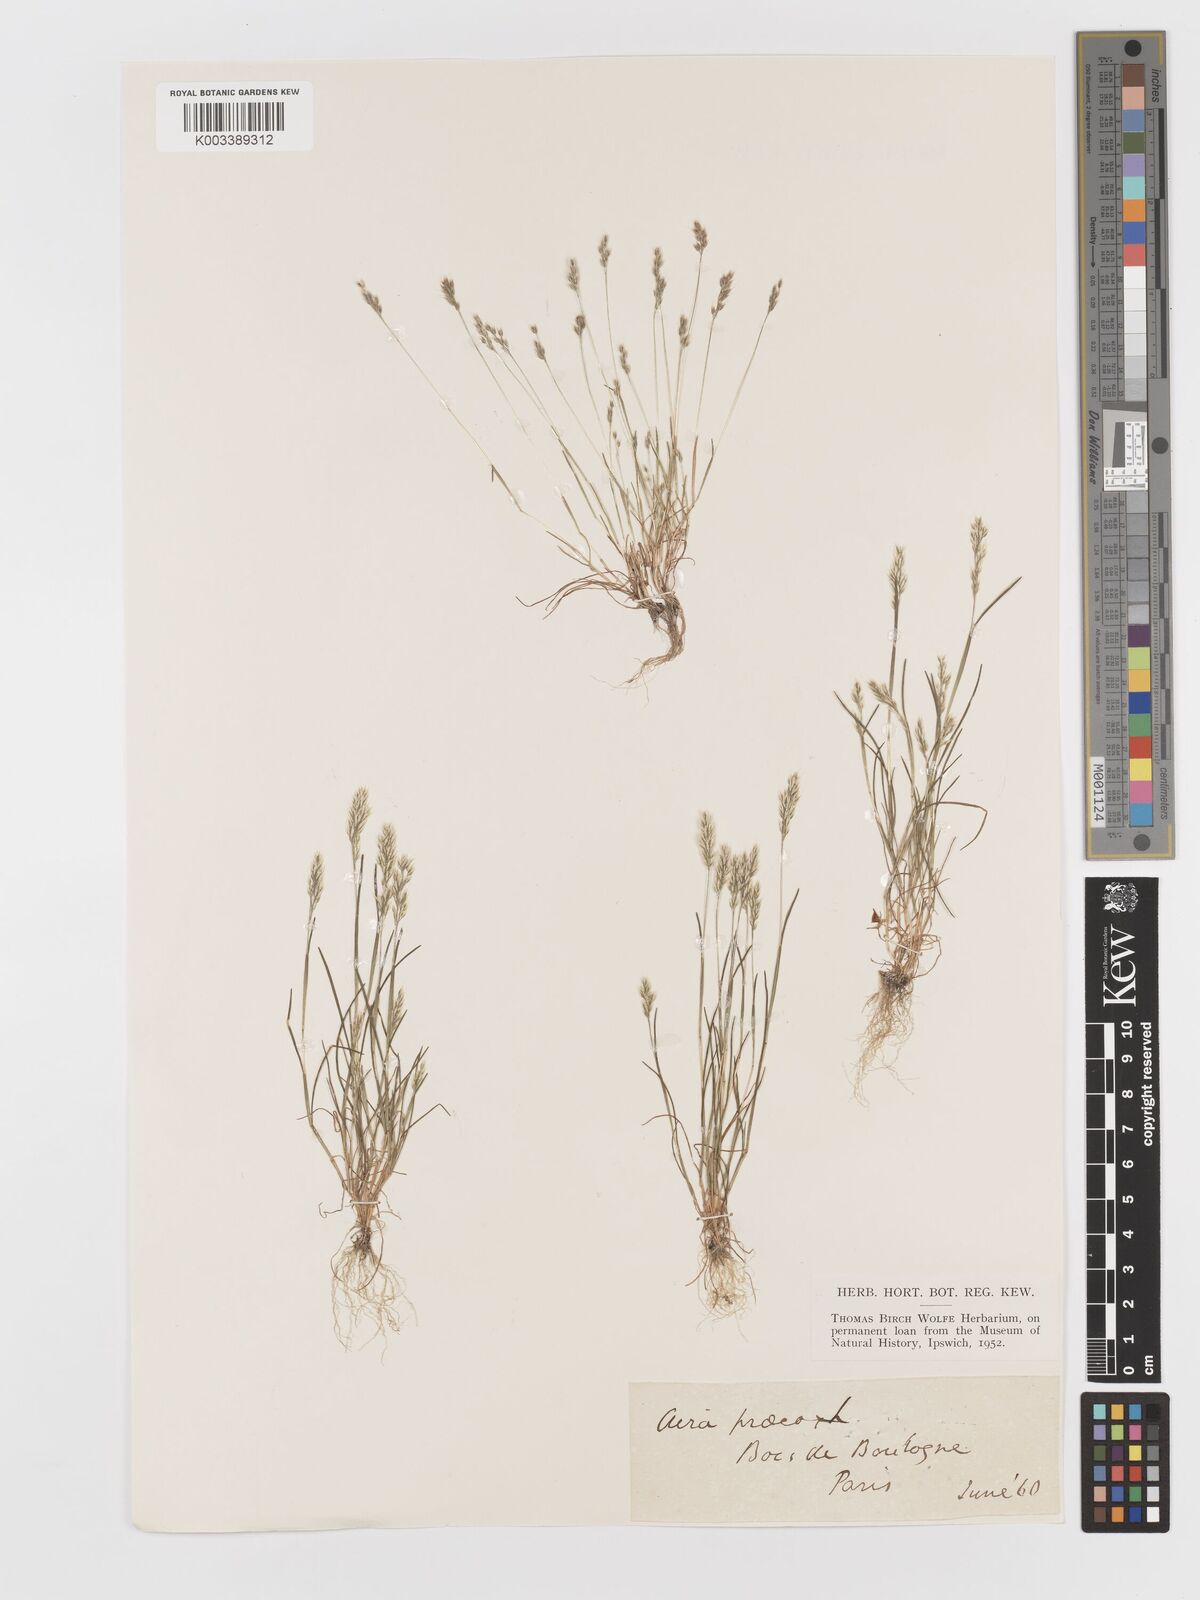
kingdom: Plantae
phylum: Tracheophyta
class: Liliopsida
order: Poales
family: Poaceae
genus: Aira
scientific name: Aira praecox
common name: Early hair-grass
